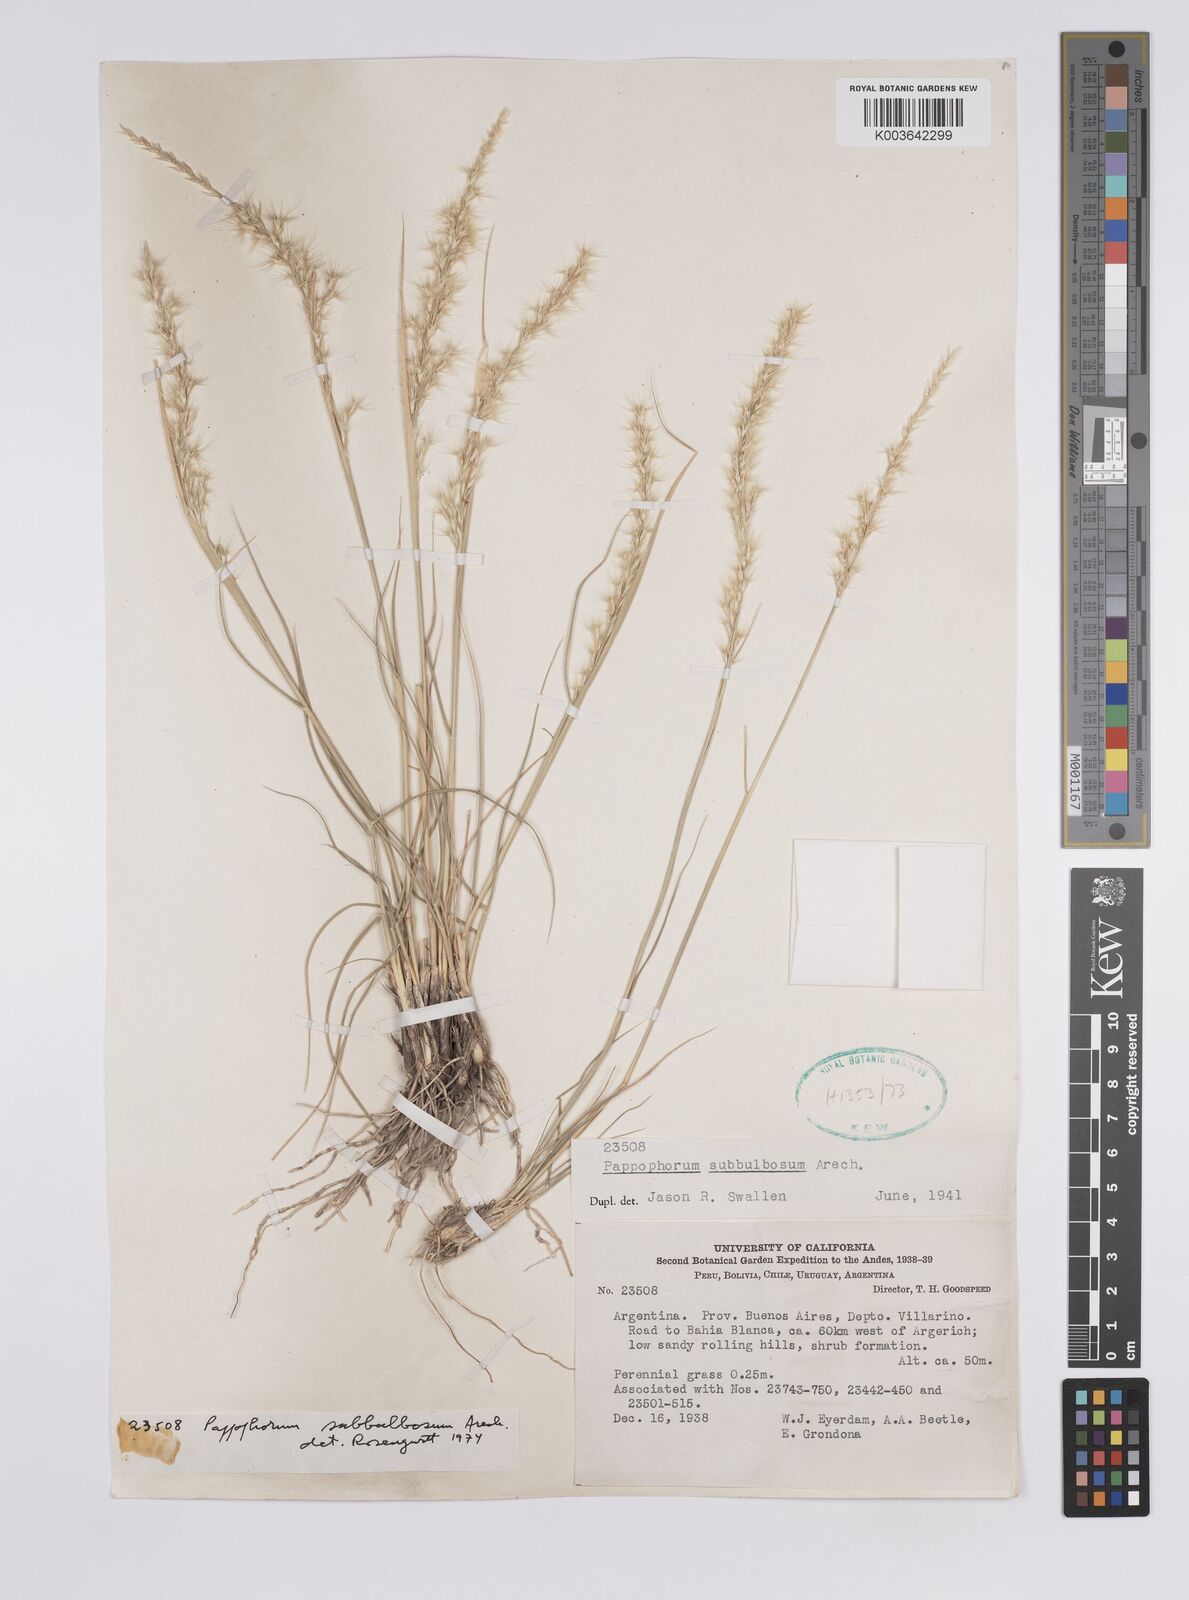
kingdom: Plantae
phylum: Tracheophyta
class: Liliopsida
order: Poales
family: Poaceae
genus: Pappophorum
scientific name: Pappophorum mucronulatum
